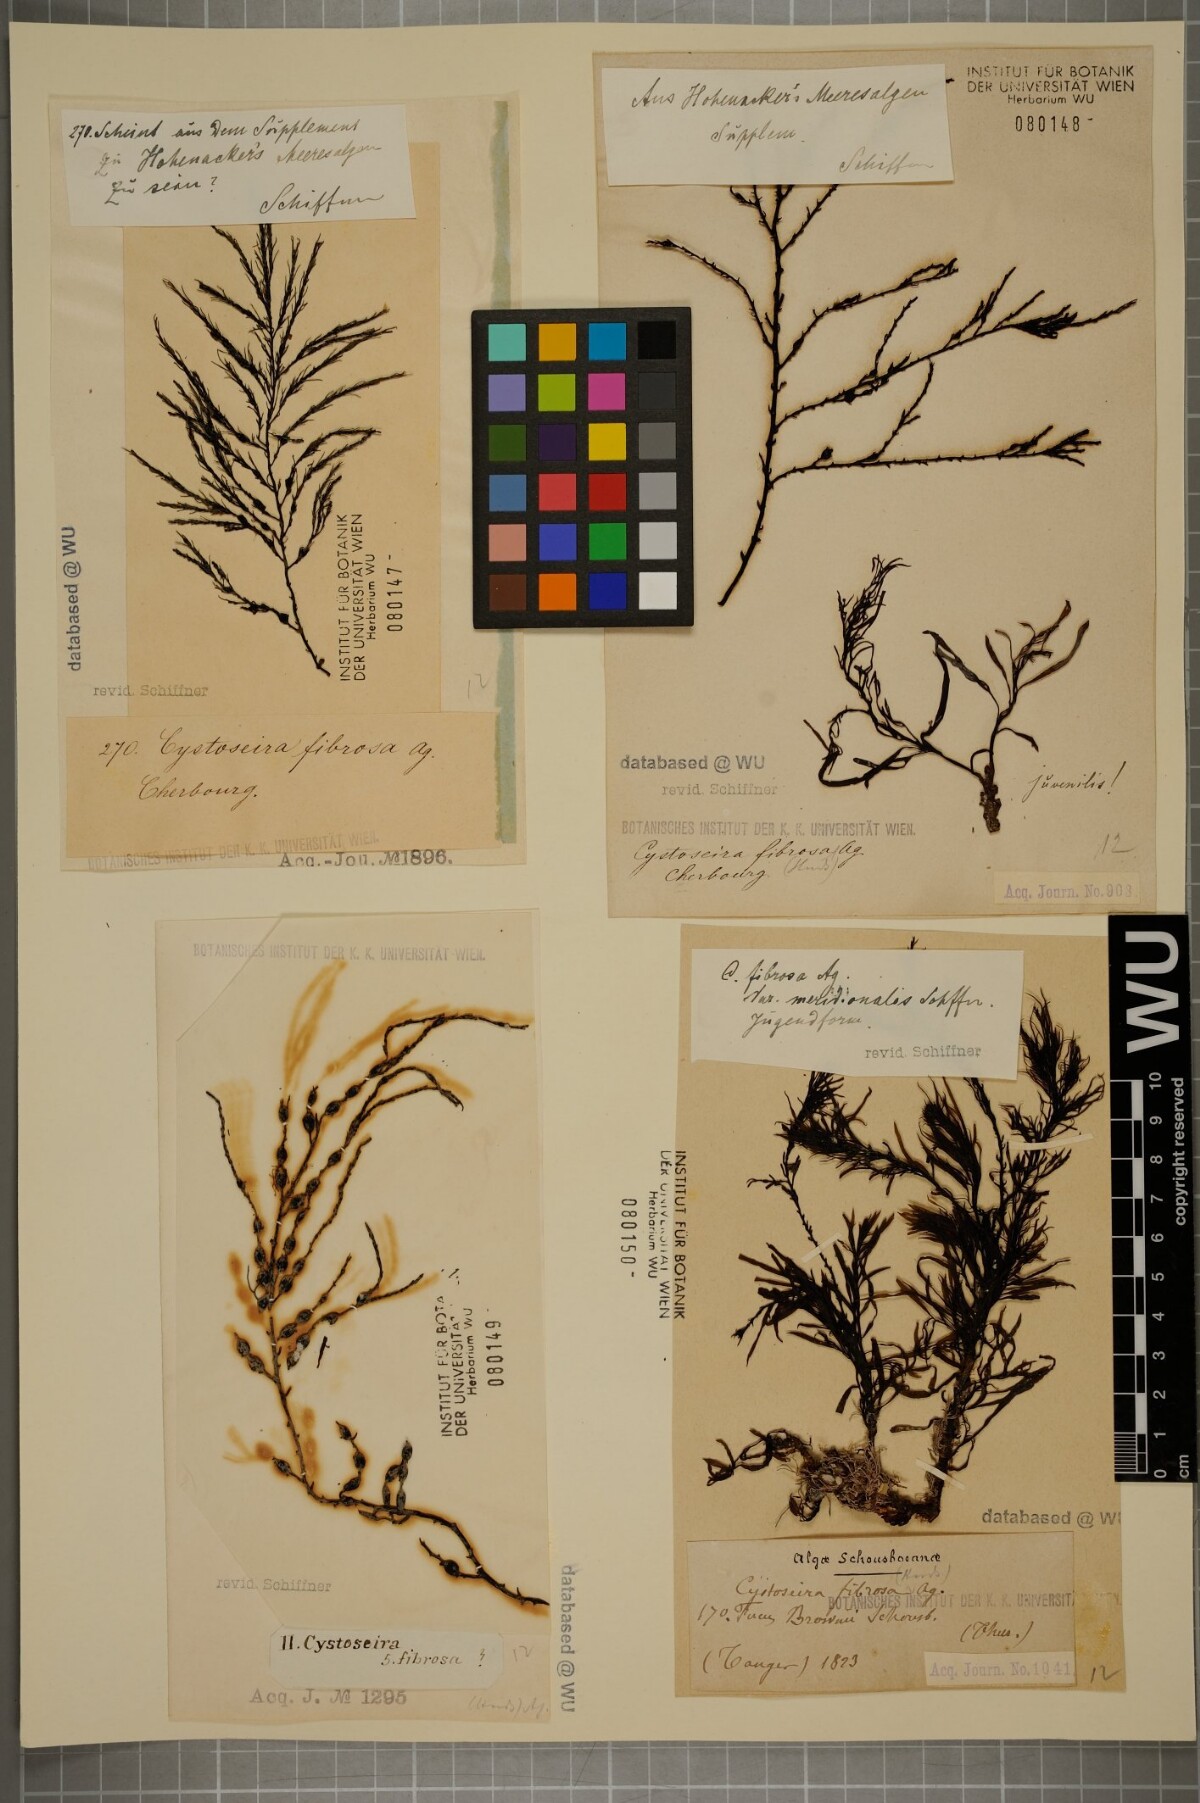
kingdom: Chromista
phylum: Ochrophyta
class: Phaeophyceae
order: Fucales
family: Sargassaceae
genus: Cystoseira
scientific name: Cystoseira Gongolaria baccata
